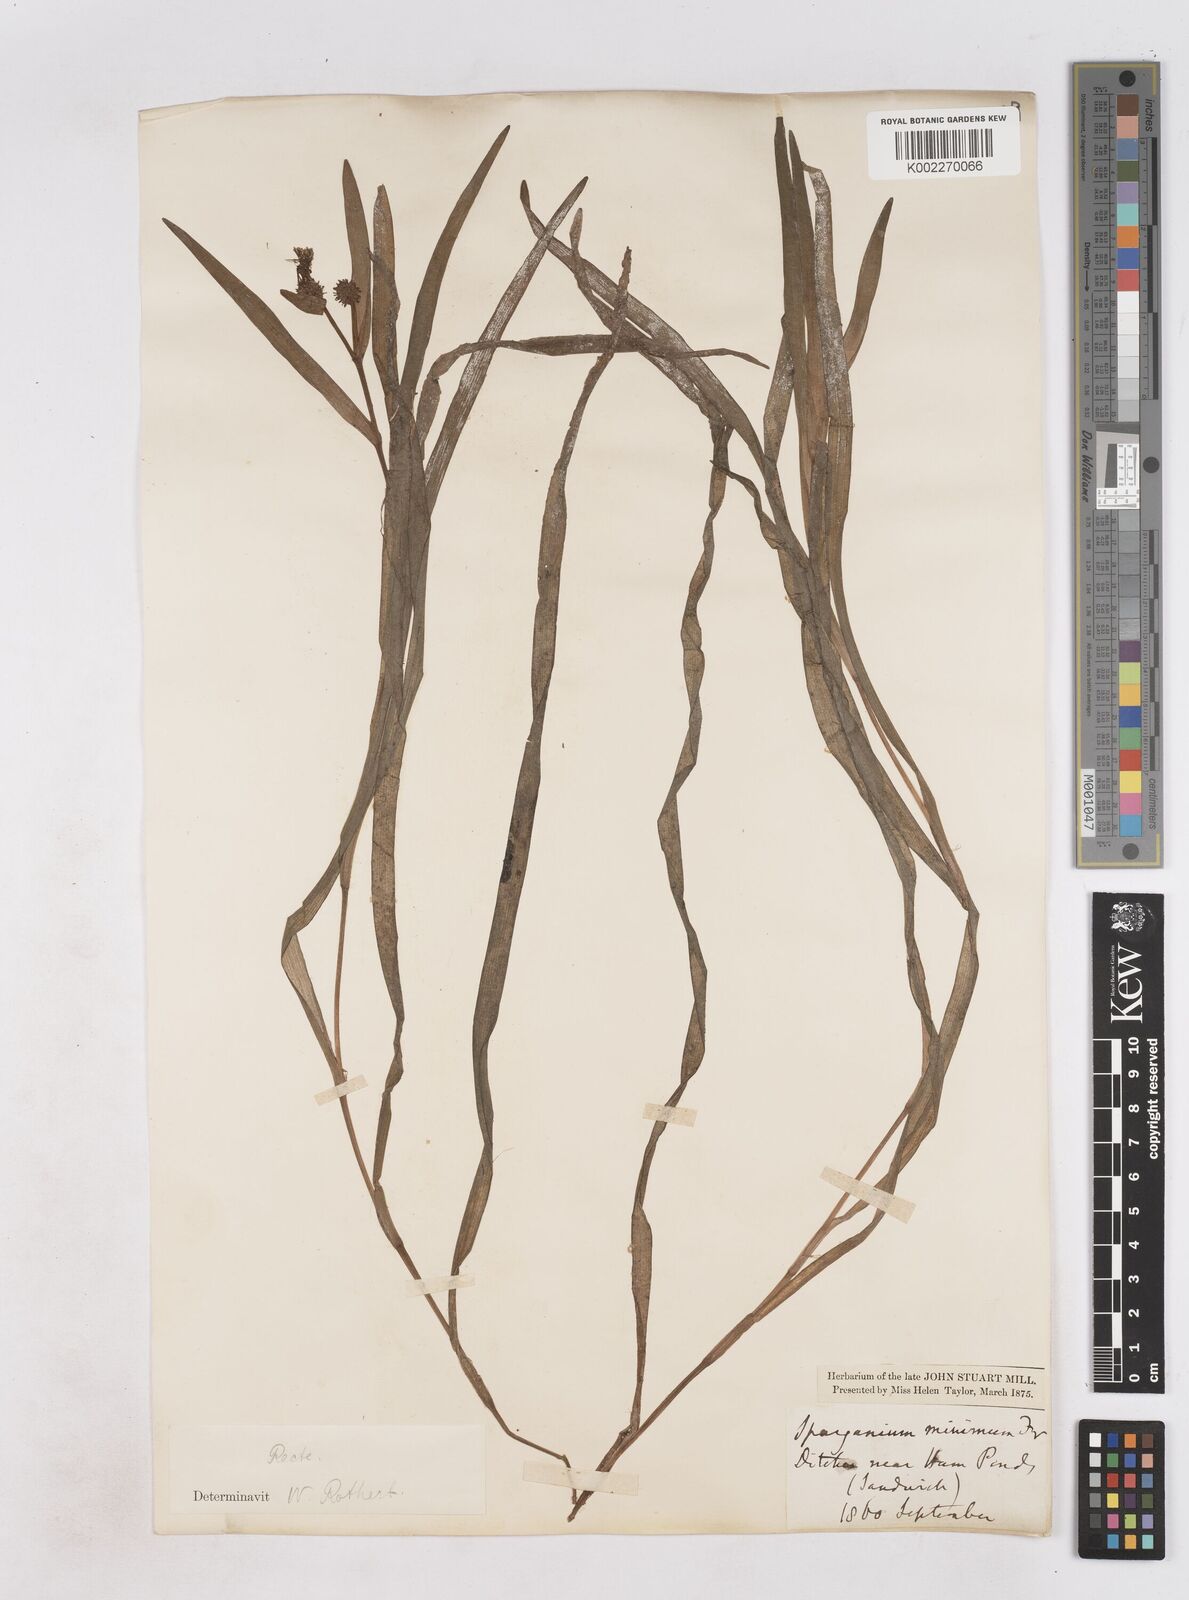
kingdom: Plantae
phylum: Tracheophyta
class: Liliopsida
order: Poales
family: Typhaceae
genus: Sparganium
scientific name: Sparganium natans
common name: Least bur-reed
